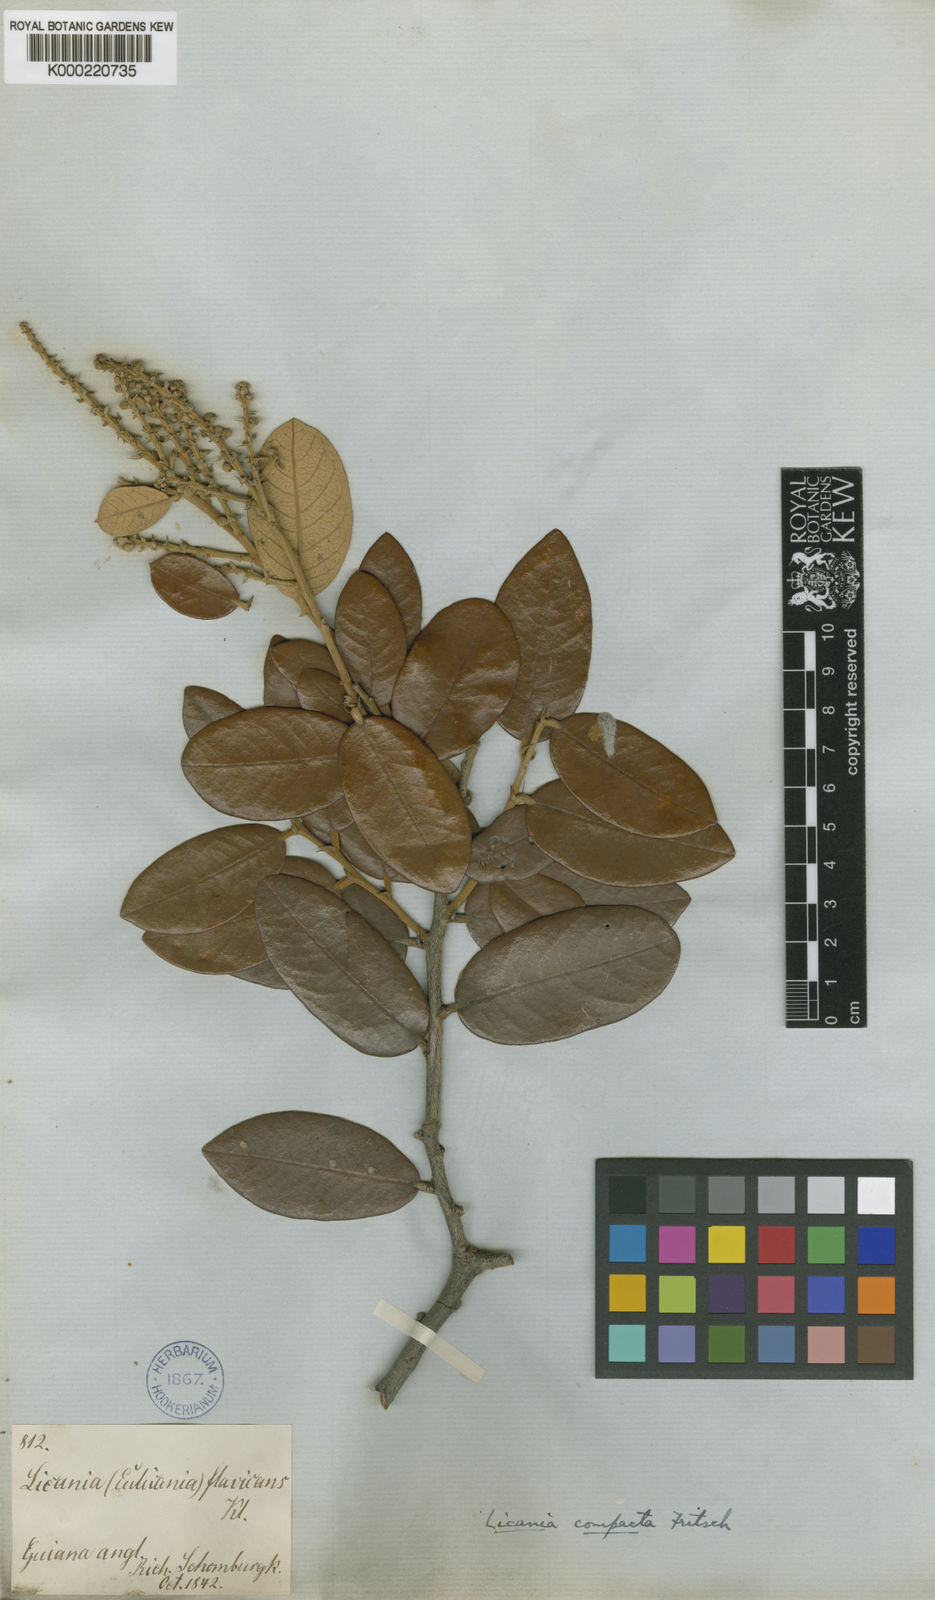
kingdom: Plantae
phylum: Tracheophyta
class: Magnoliopsida
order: Malpighiales
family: Chrysobalanaceae
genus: Licania
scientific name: Licania compacta
